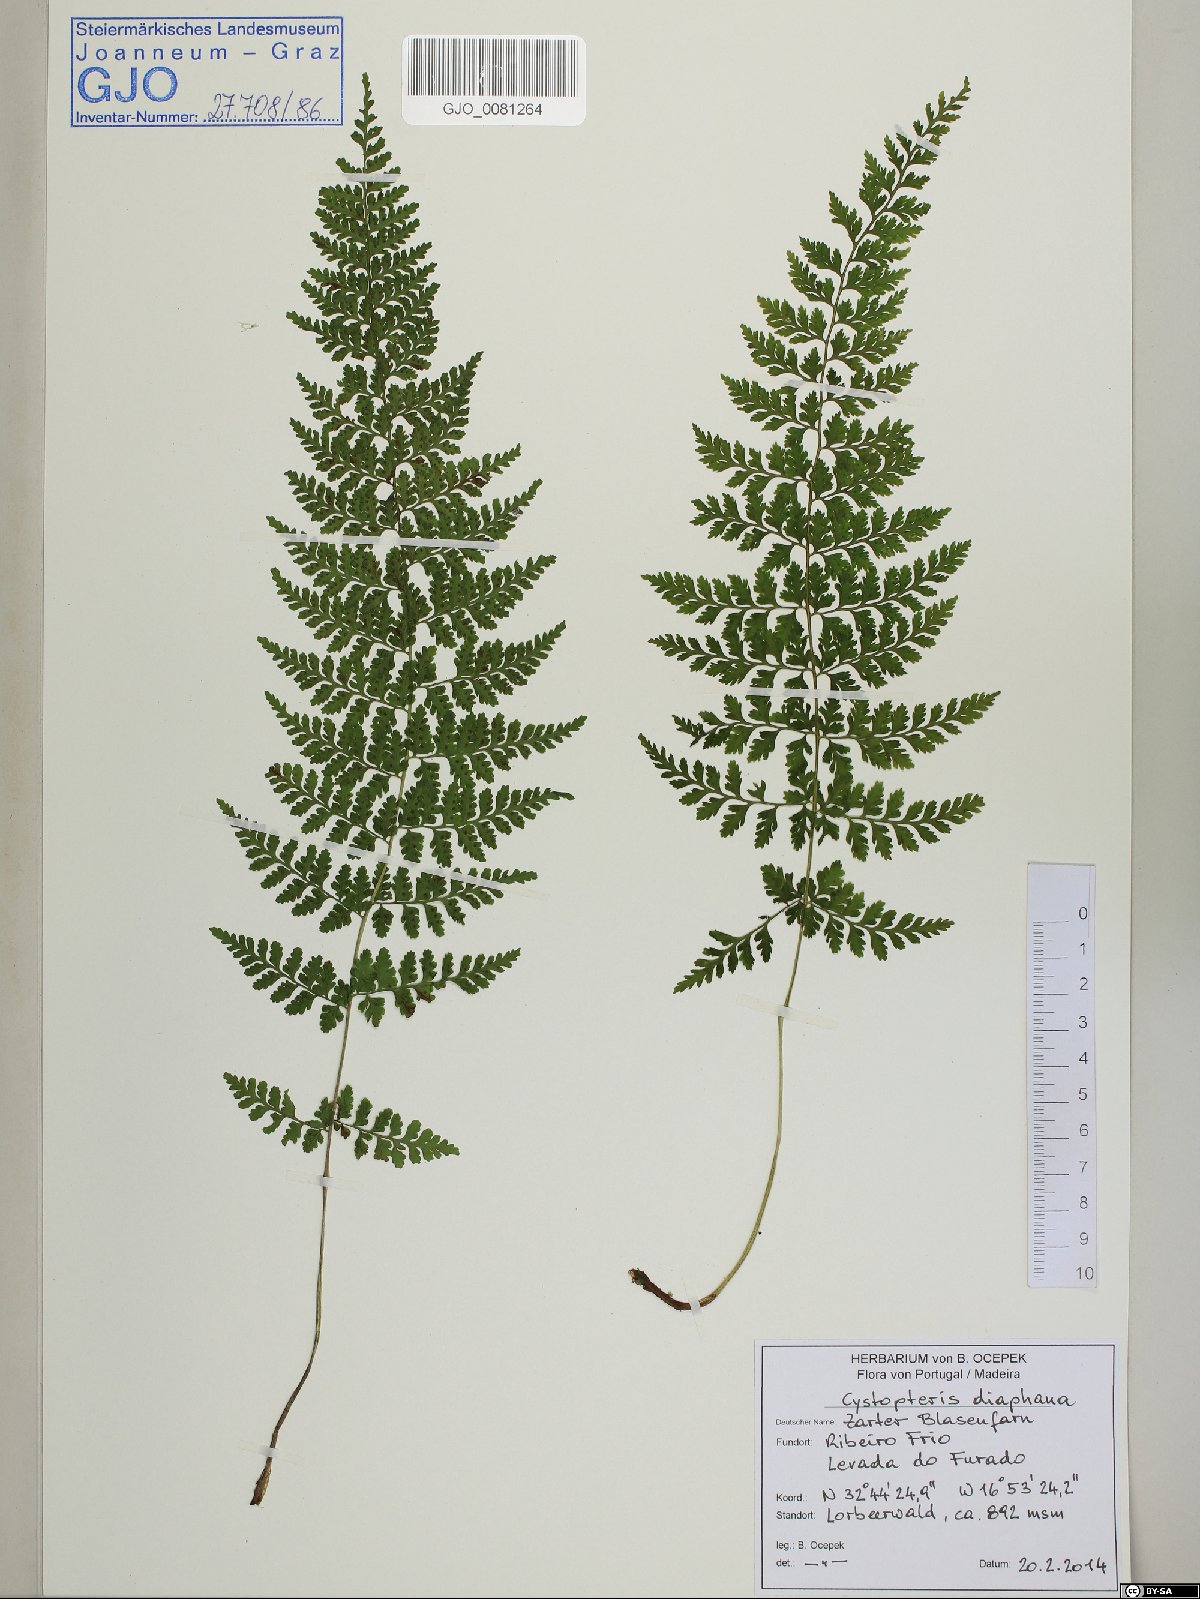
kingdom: Plantae
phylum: Tracheophyta
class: Polypodiopsida
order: Polypodiales
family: Cystopteridaceae
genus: Cystopteris
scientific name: Cystopteris diaphana
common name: Greenish bladder-fern
